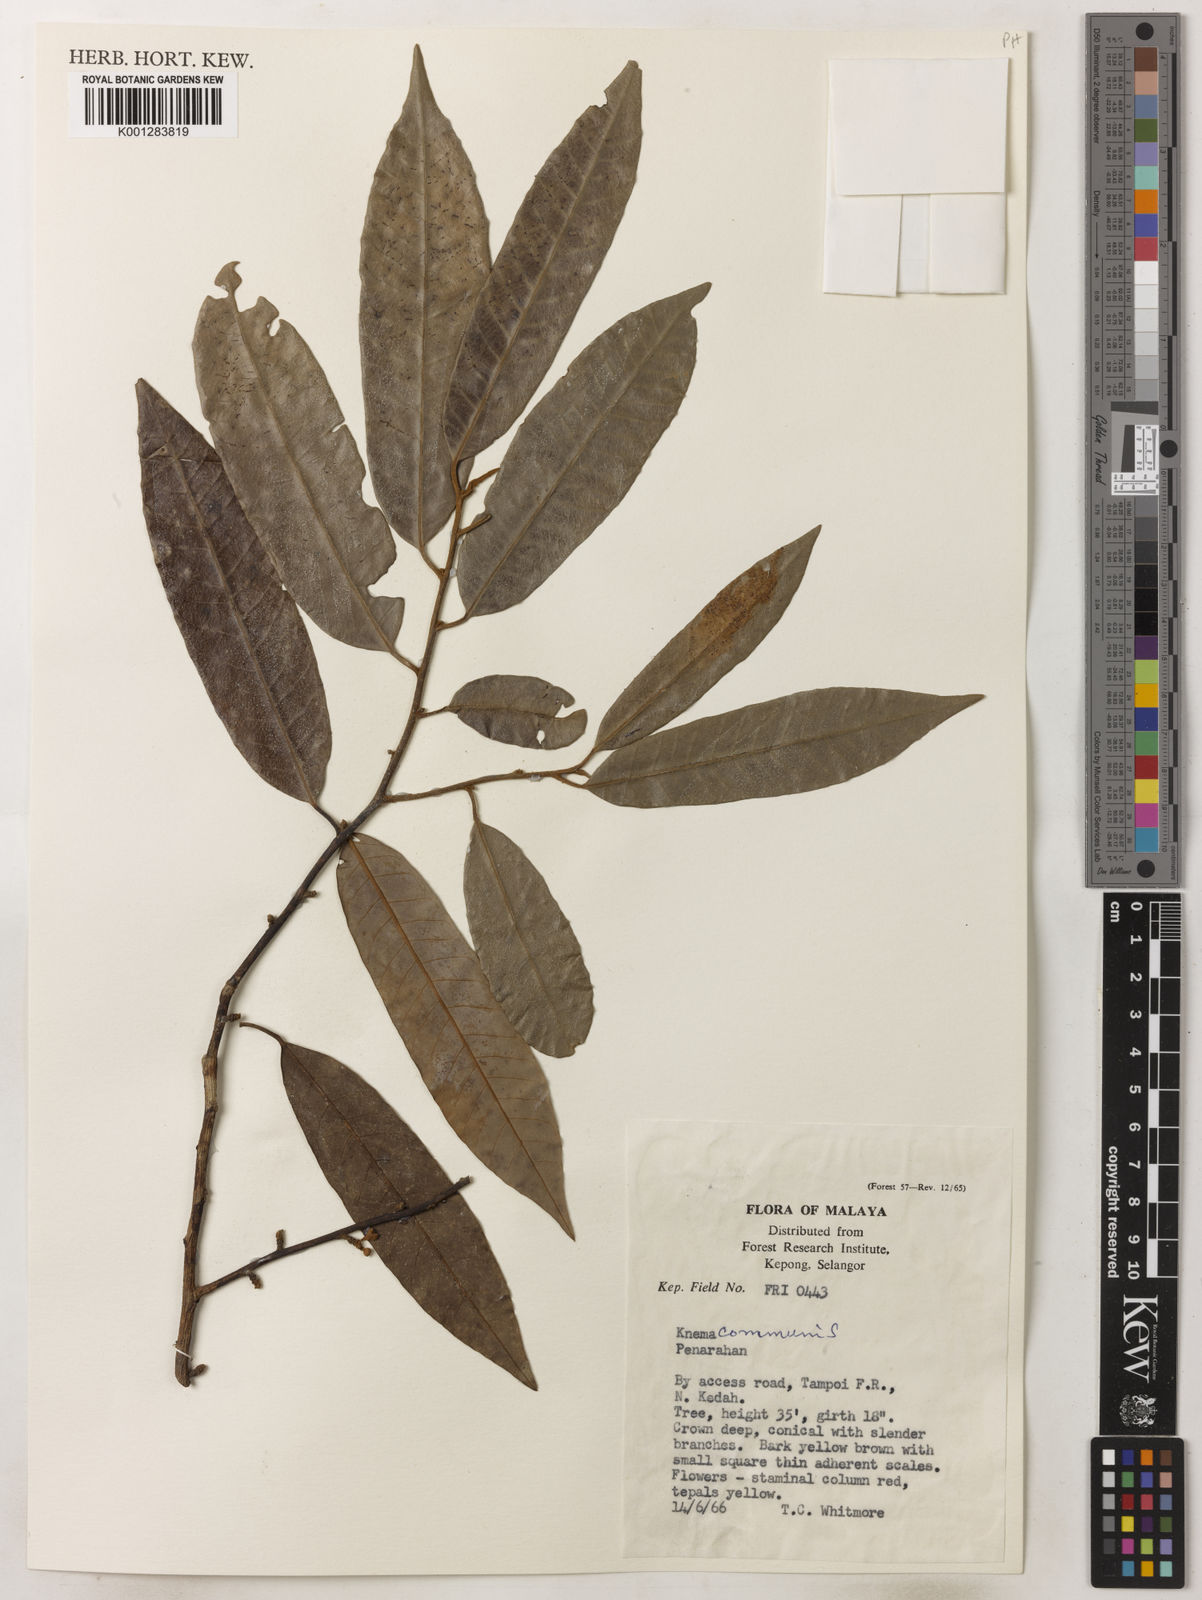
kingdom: Plantae
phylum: Tracheophyta
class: Magnoliopsida
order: Magnoliales
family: Myristicaceae
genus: Knema
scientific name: Knema communis
